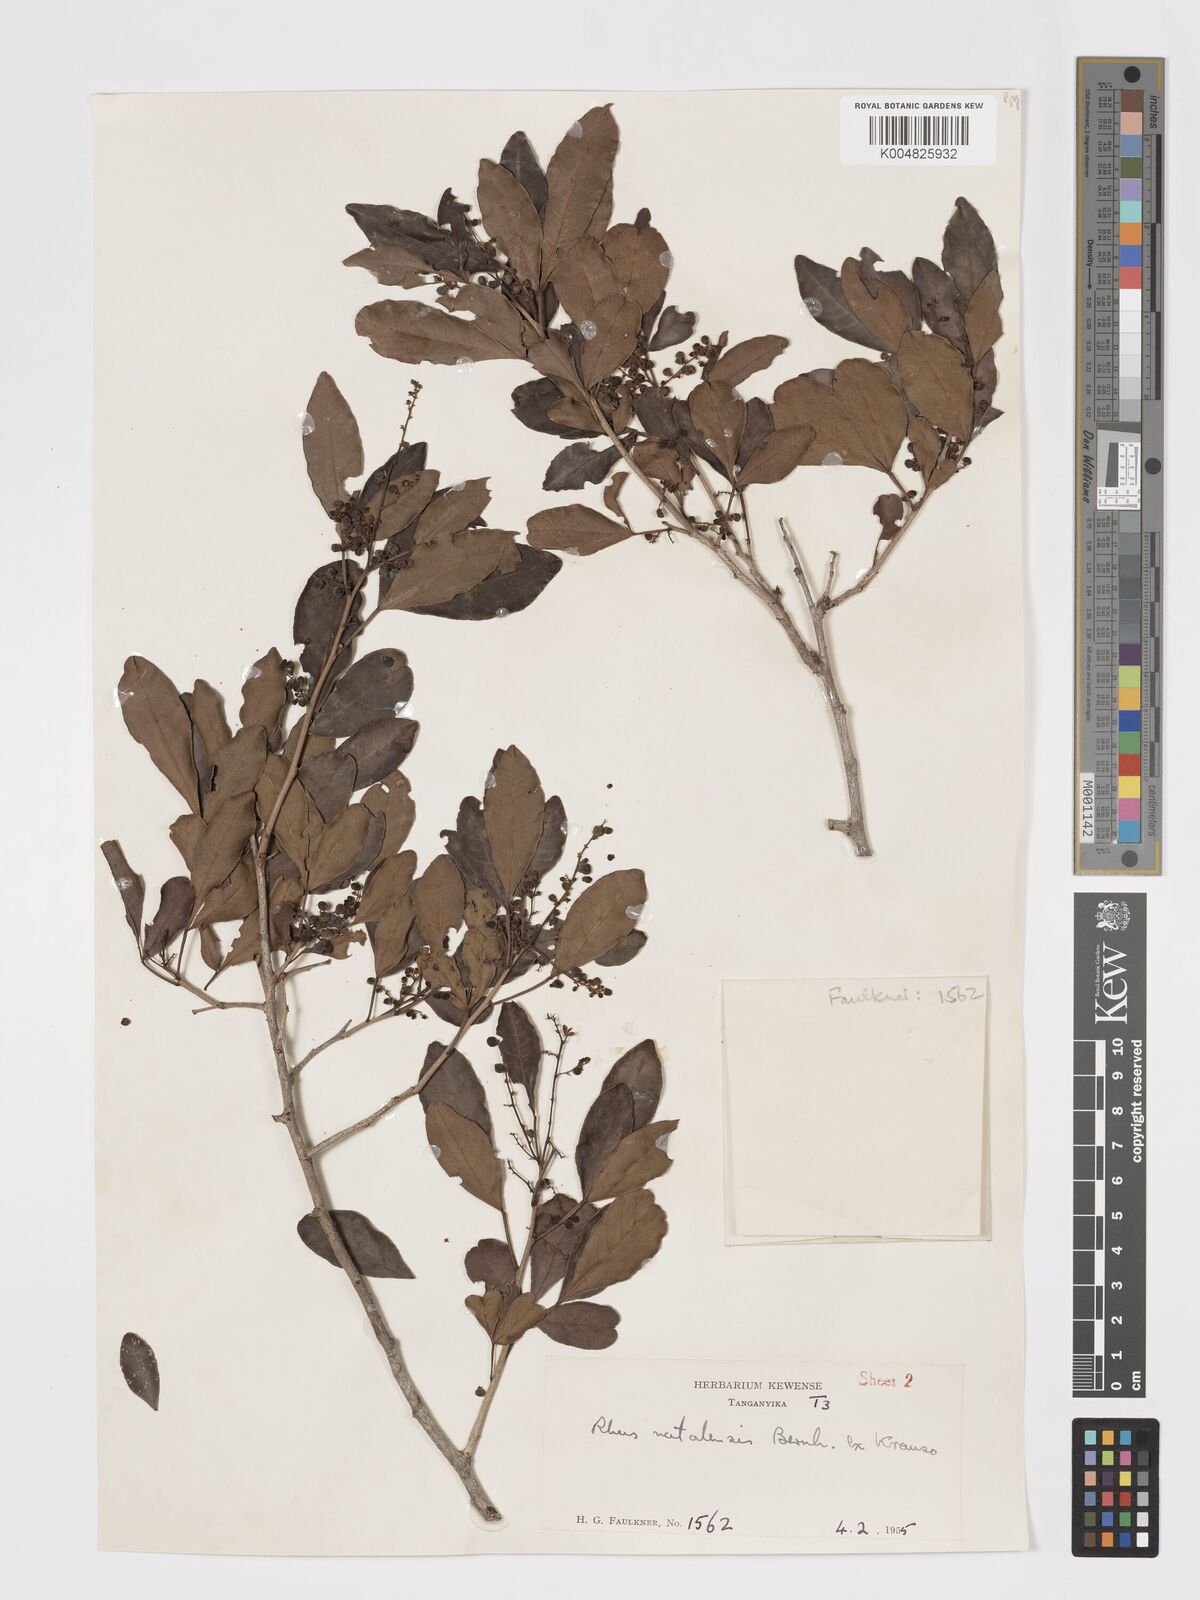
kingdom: Plantae
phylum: Tracheophyta
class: Magnoliopsida
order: Sapindales
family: Anacardiaceae
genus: Searsia
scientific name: Searsia natalensis
